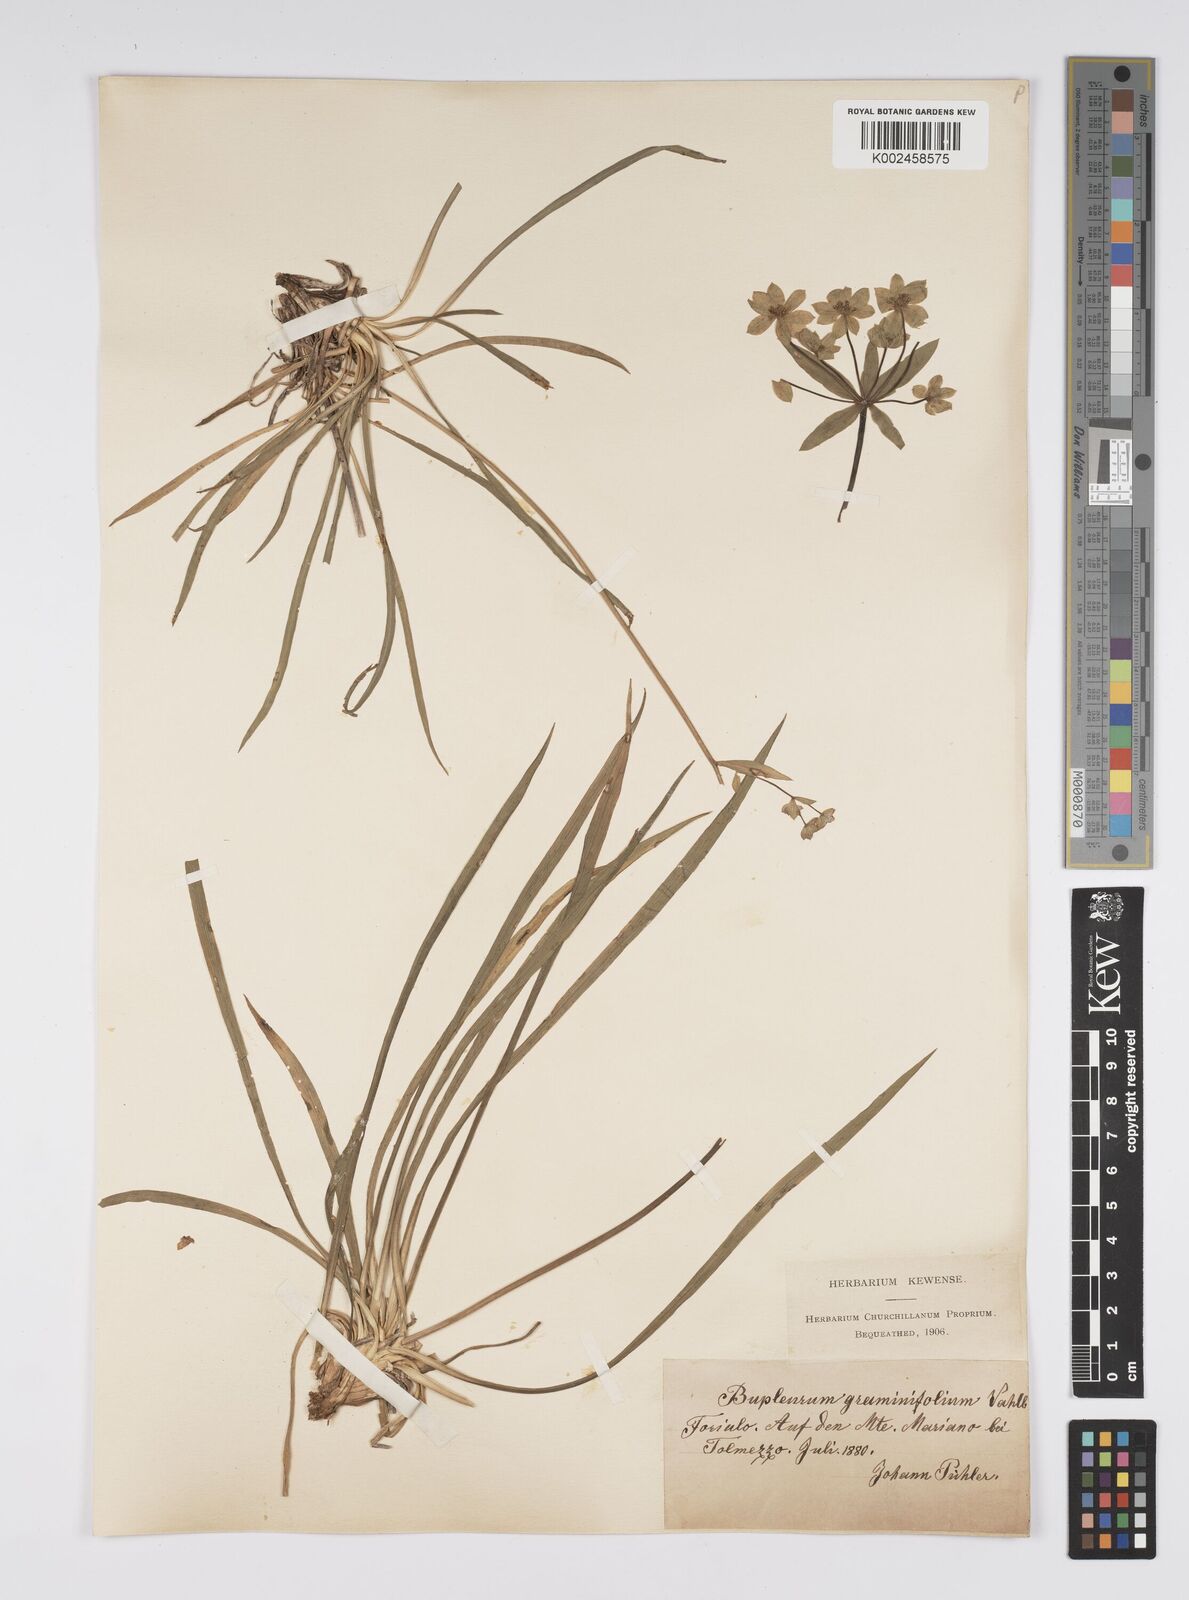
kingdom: Plantae
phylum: Tracheophyta
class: Magnoliopsida
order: Apiales
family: Apiaceae
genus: Bupleurum
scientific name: Bupleurum petraeum
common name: Rock hare's-ear
